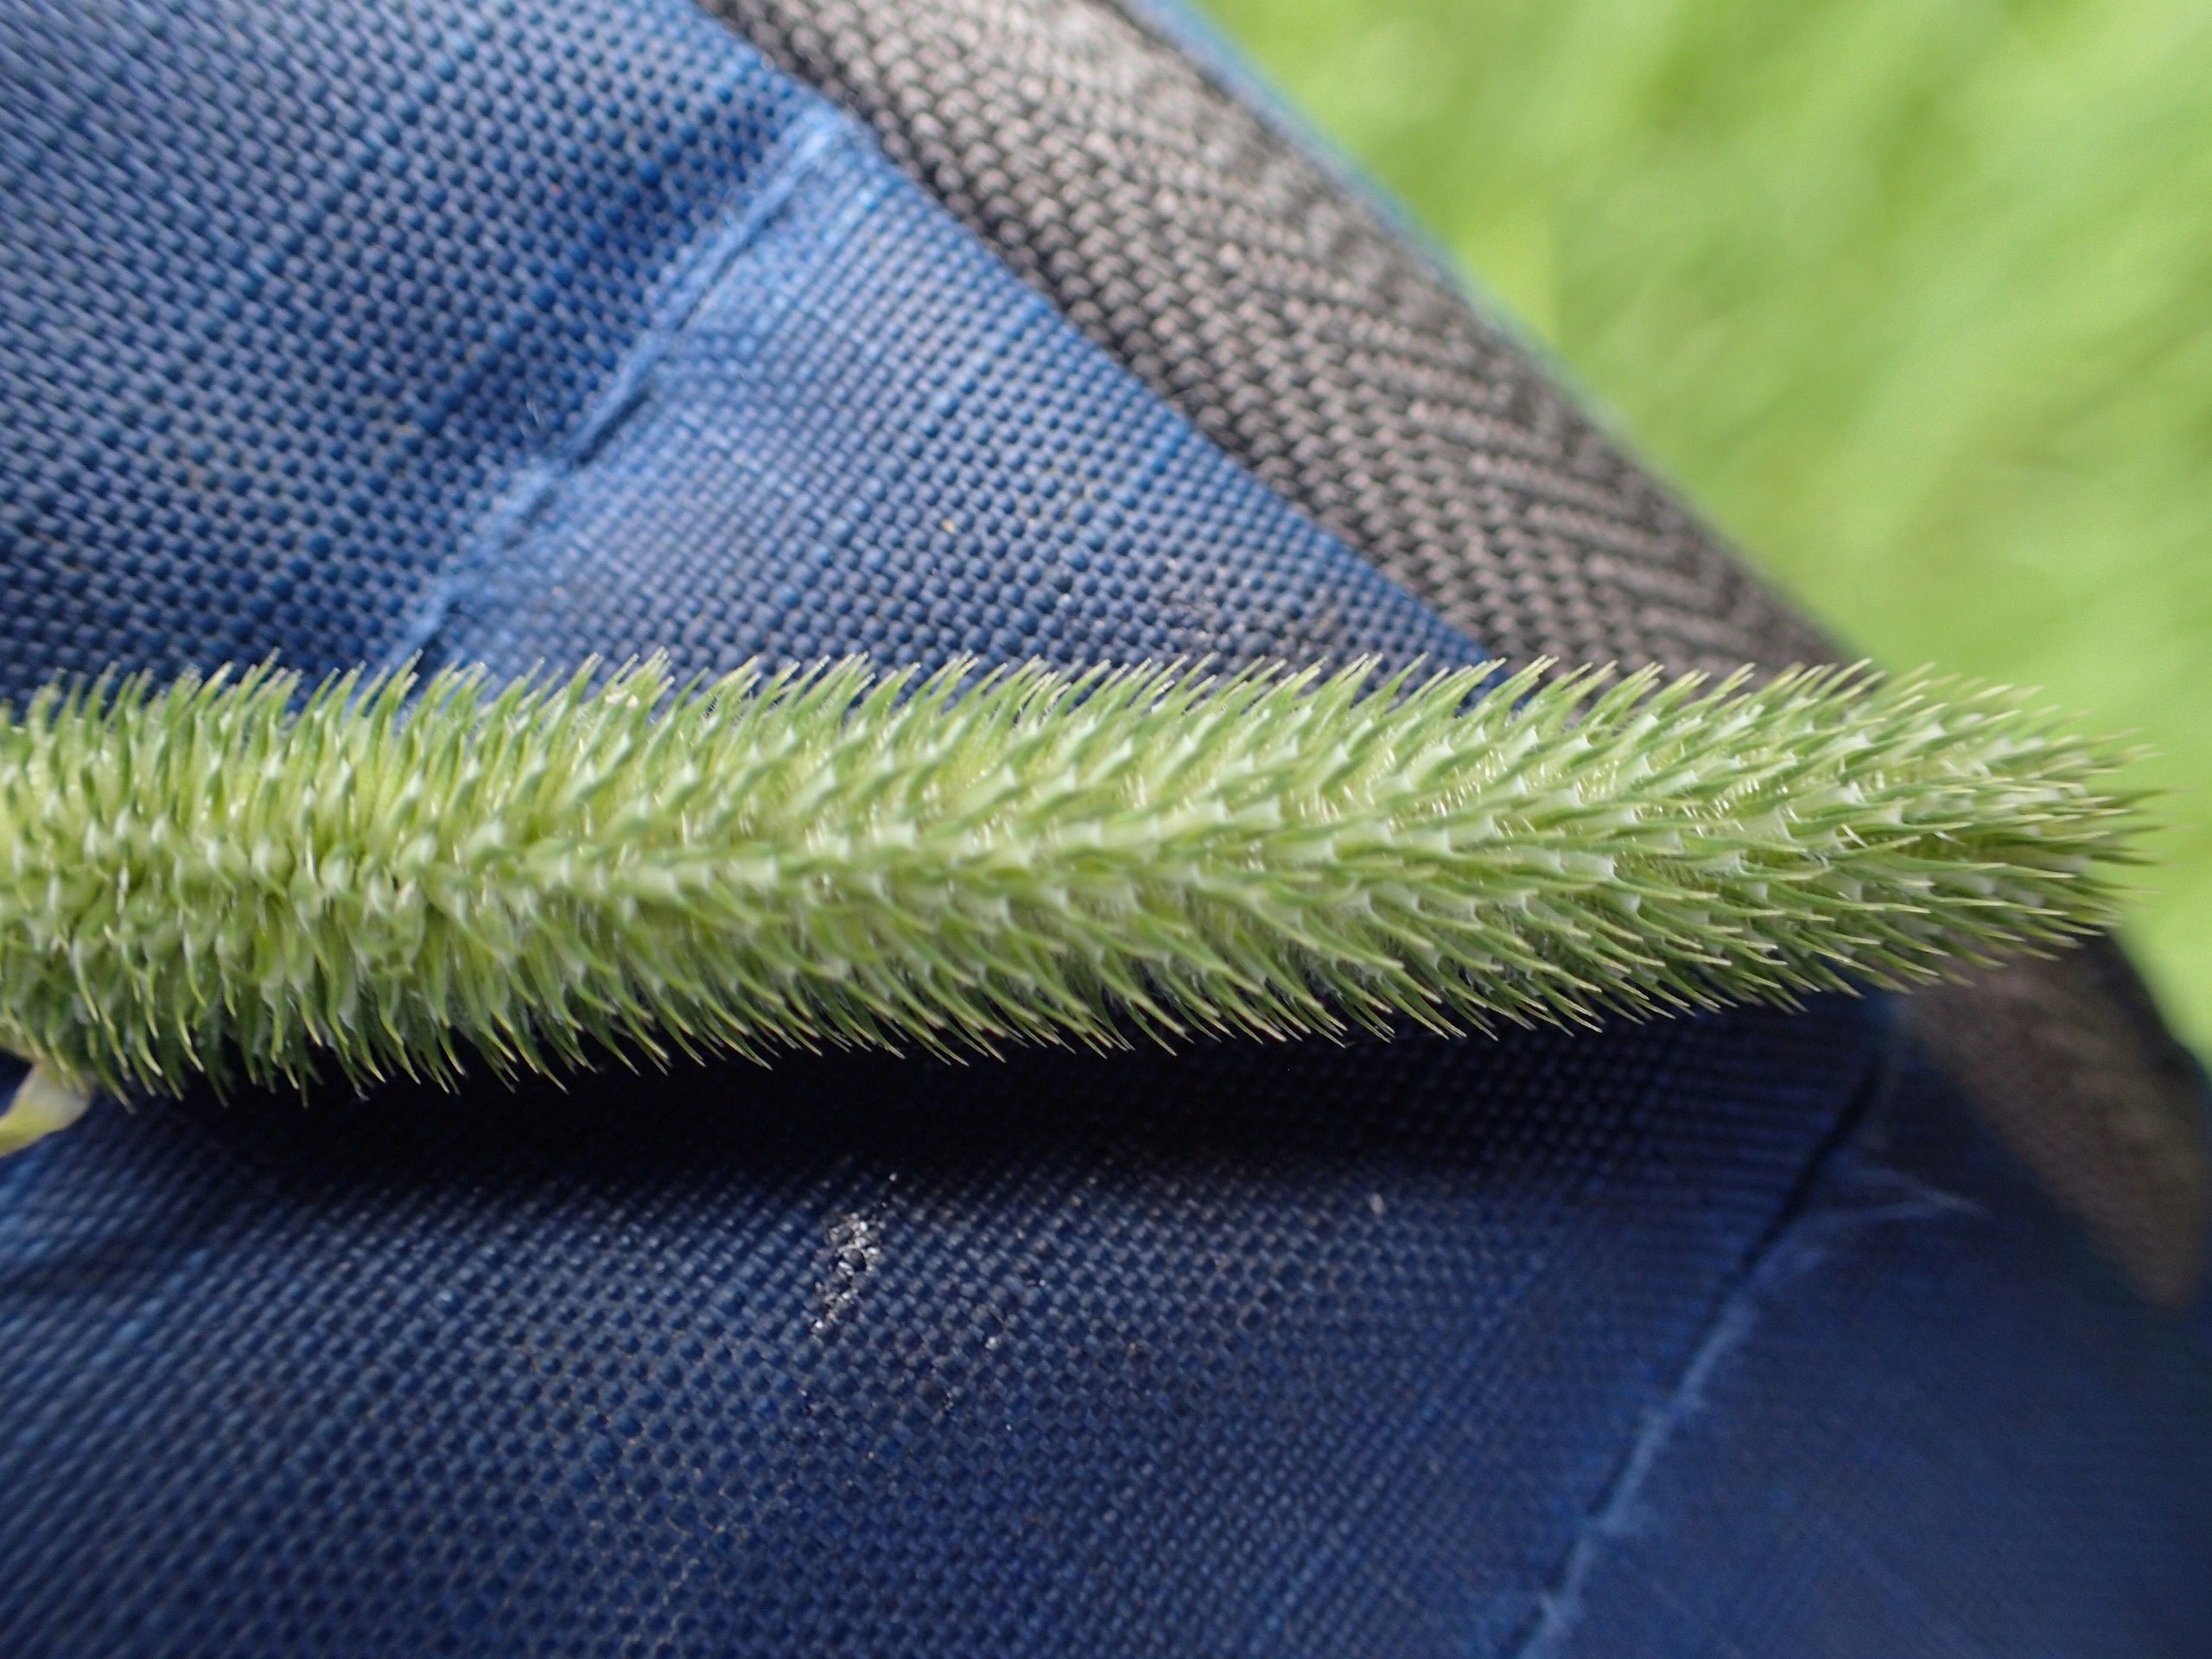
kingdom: Plantae
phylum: Tracheophyta
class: Liliopsida
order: Poales
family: Poaceae
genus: Phleum
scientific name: Phleum pratense
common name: Eng-rottehale
